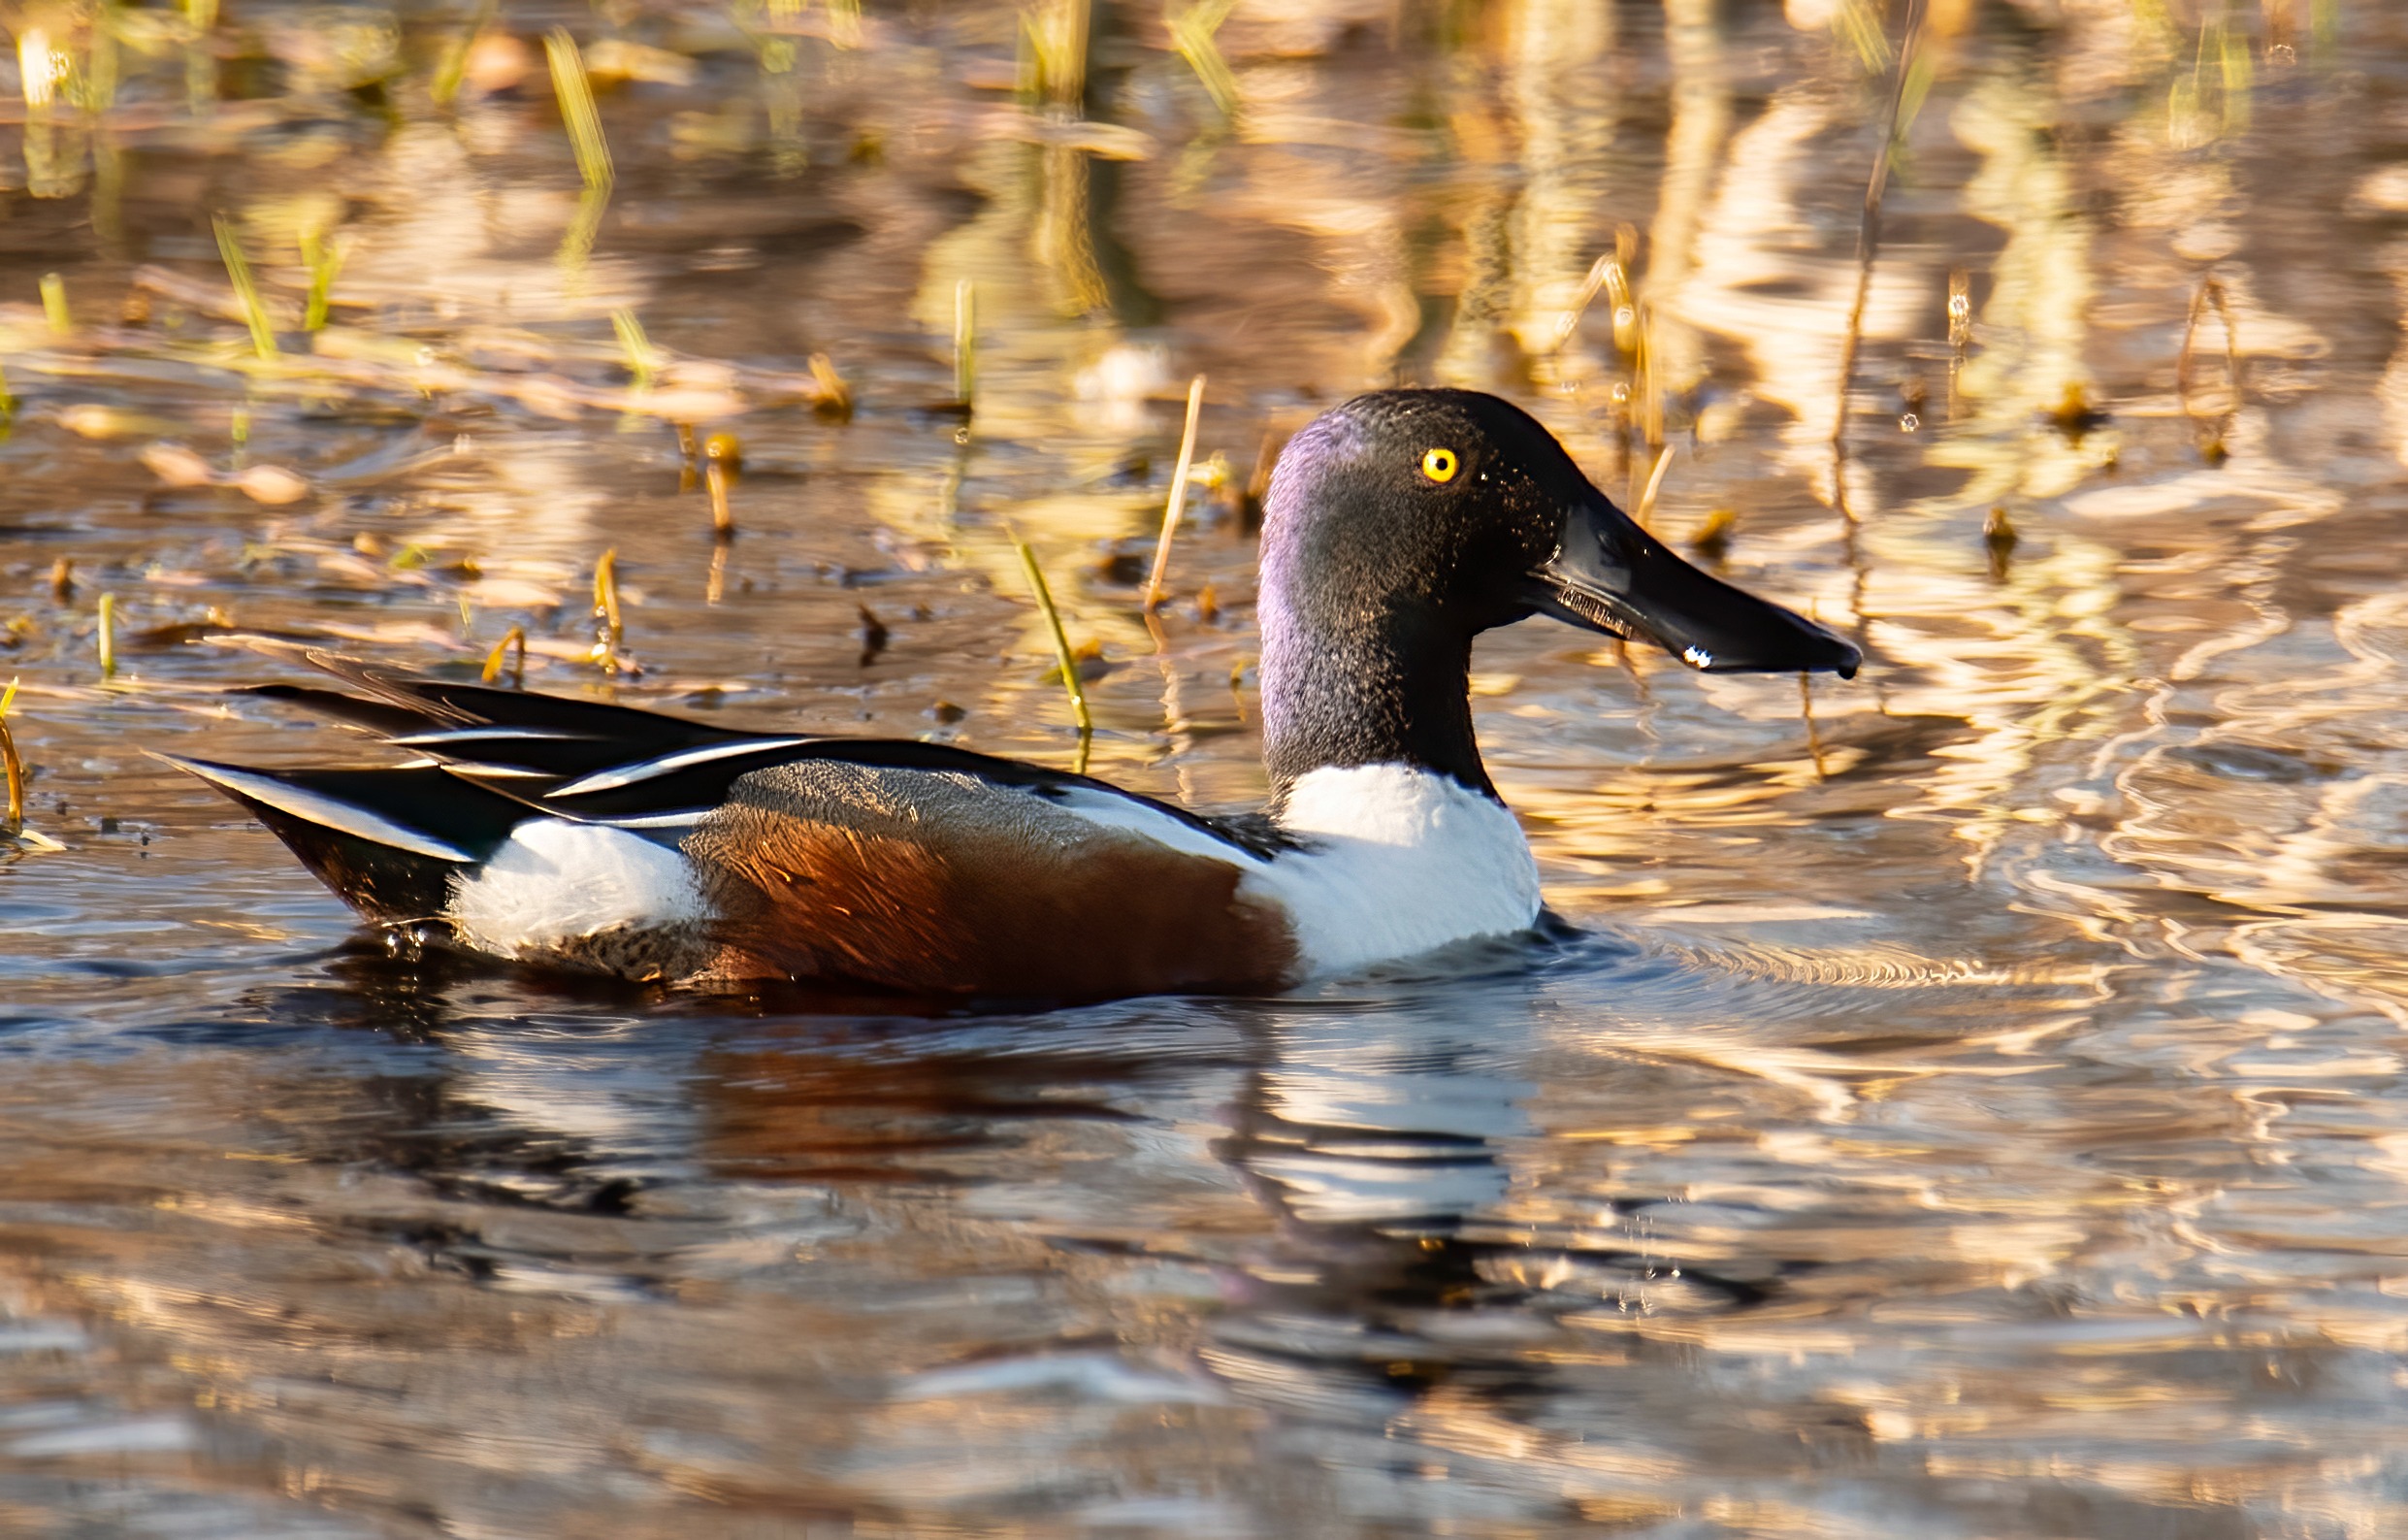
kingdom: Animalia
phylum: Chordata
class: Aves
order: Anseriformes
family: Anatidae
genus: Spatula
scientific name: Spatula clypeata
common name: Skeand
